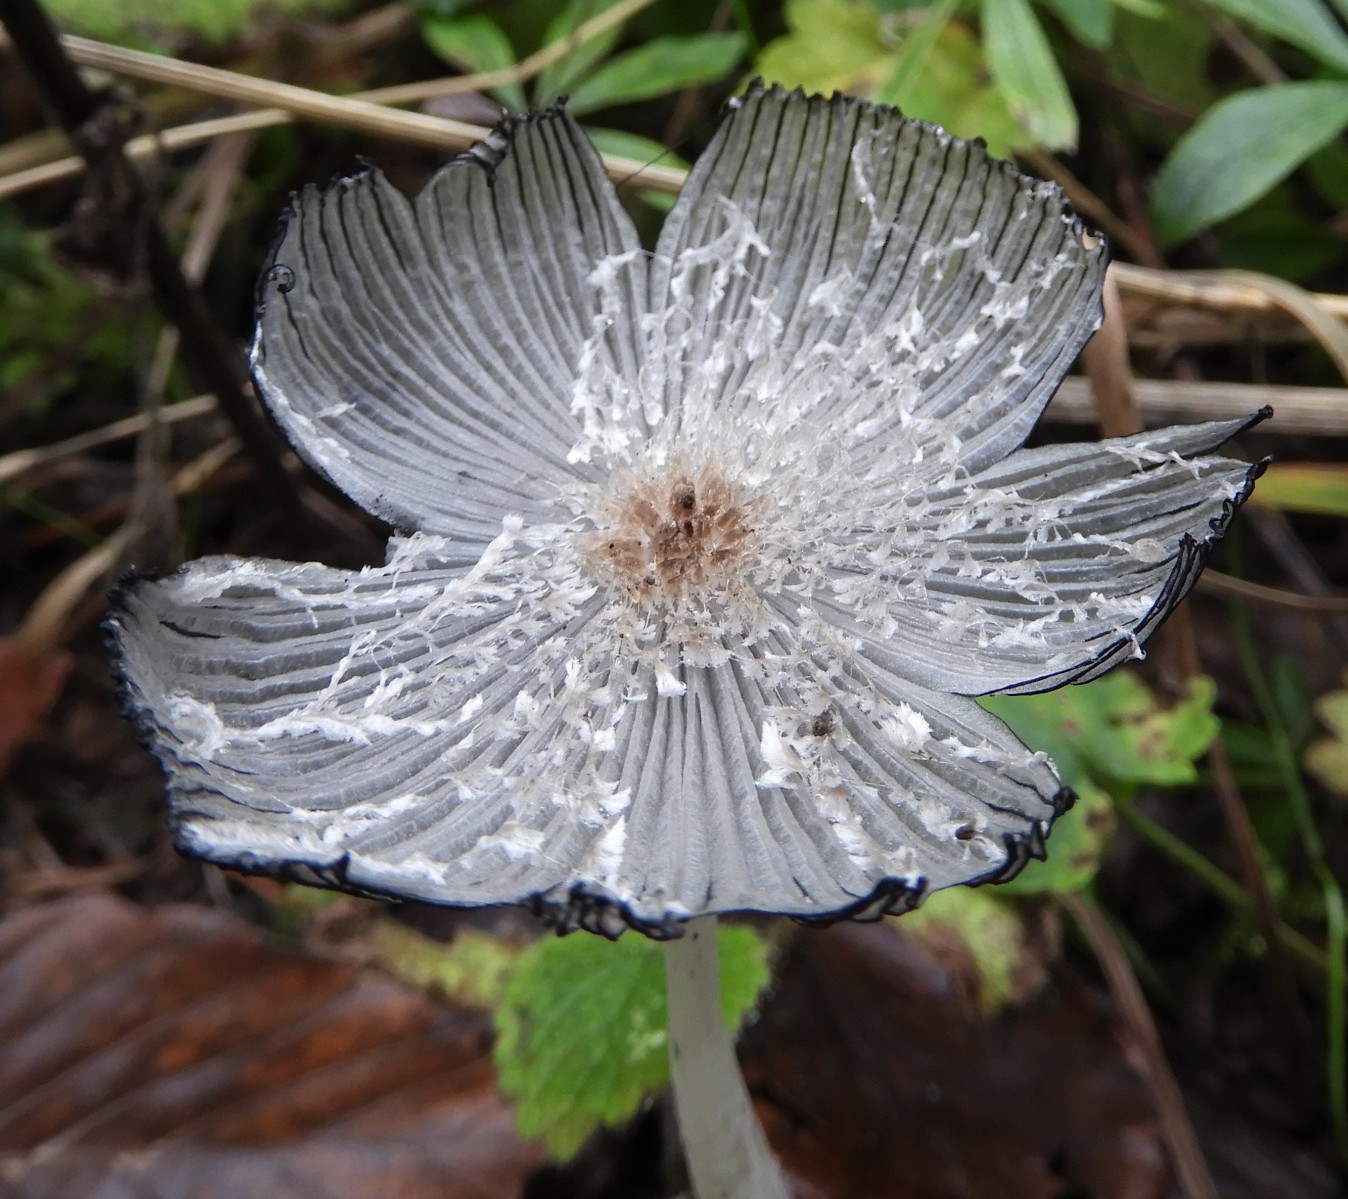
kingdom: Fungi
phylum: Basidiomycota
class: Agaricomycetes
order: Agaricales
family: Psathyrellaceae
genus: Coprinopsis
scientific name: Coprinopsis lagopus
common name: dunstokket blækhat
